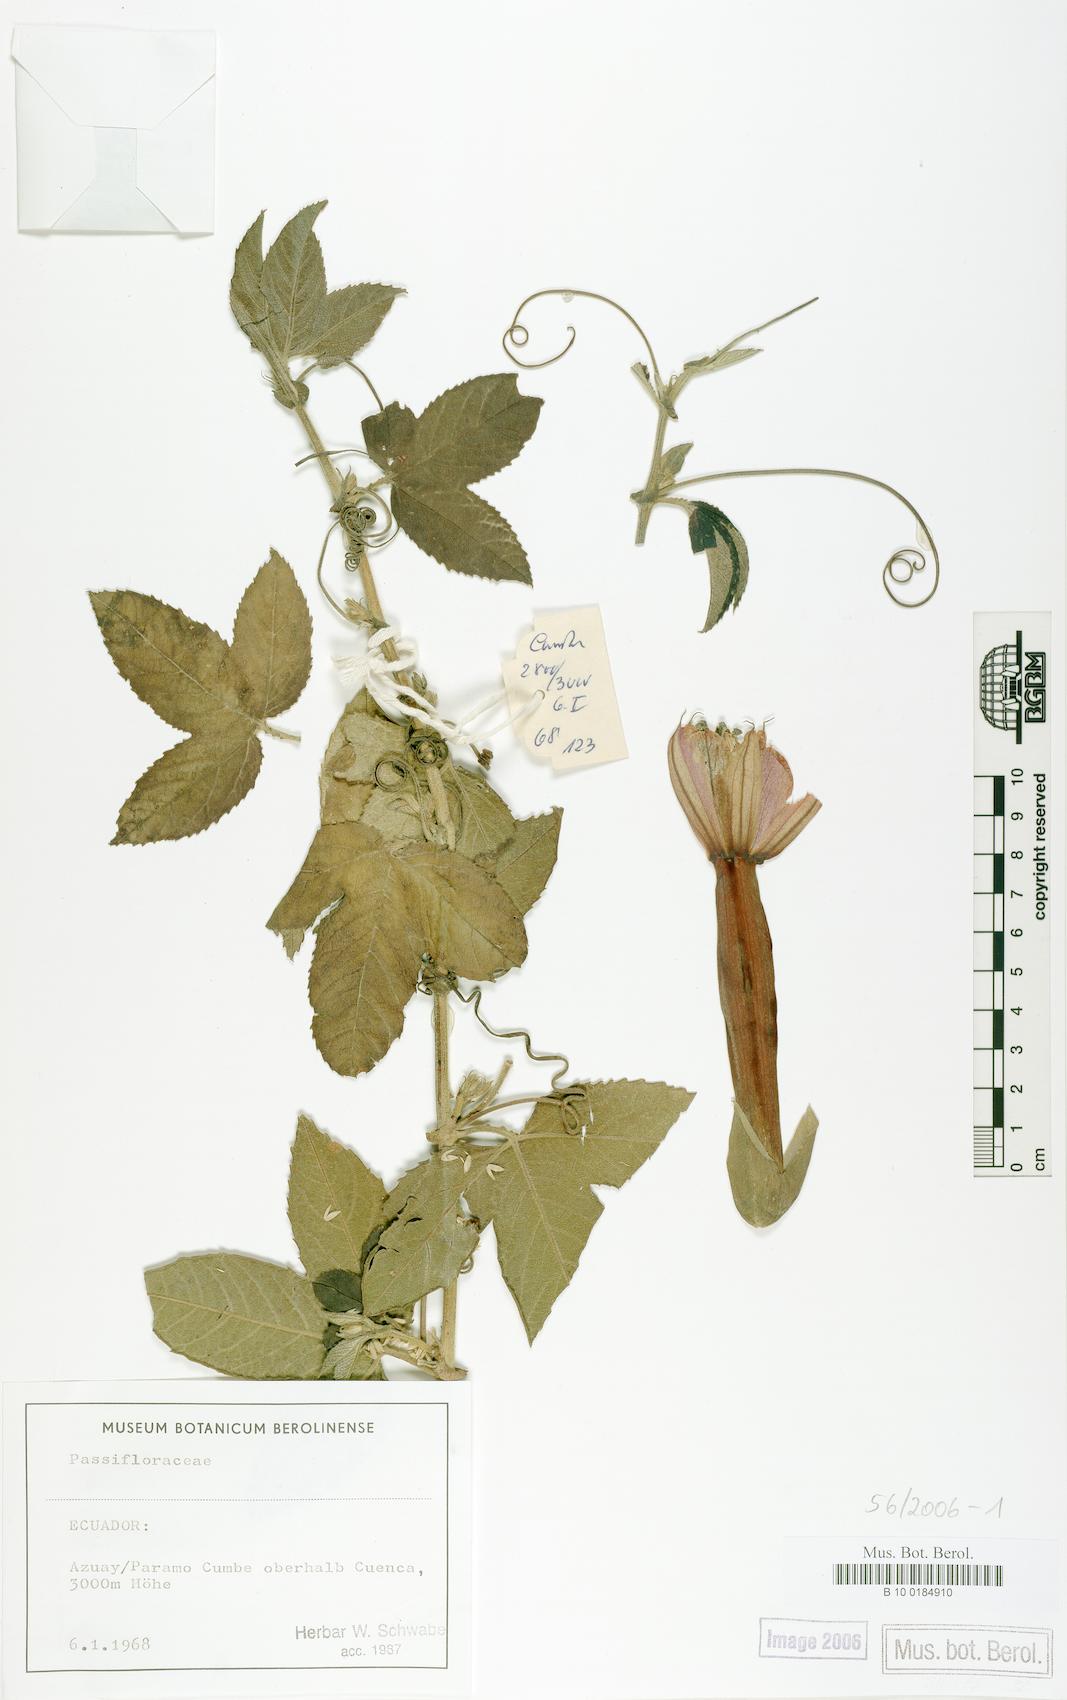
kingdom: Plantae
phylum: Tracheophyta
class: Magnoliopsida
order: Malpighiales
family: Passifloraceae
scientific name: Passifloraceae
